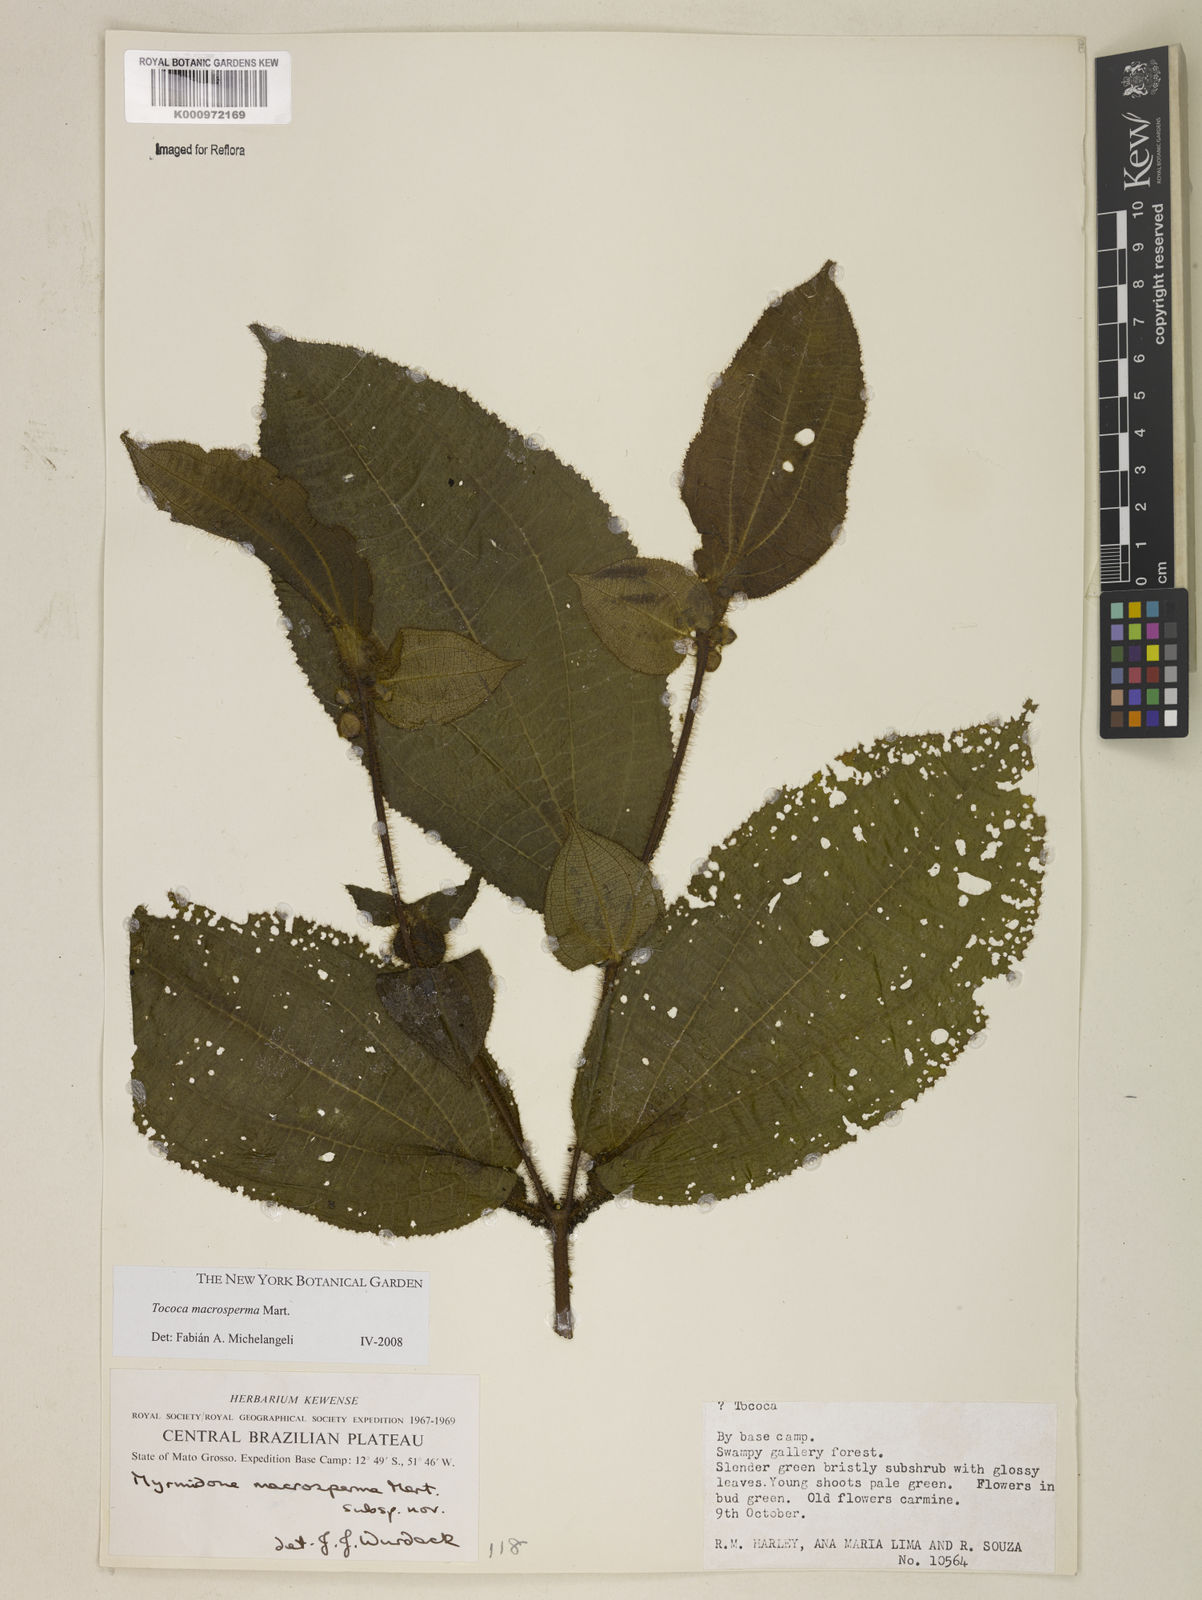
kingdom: Plantae
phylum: Tracheophyta
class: Magnoliopsida
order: Myrtales
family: Melastomataceae
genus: Miconia
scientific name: Miconia macrosperma
